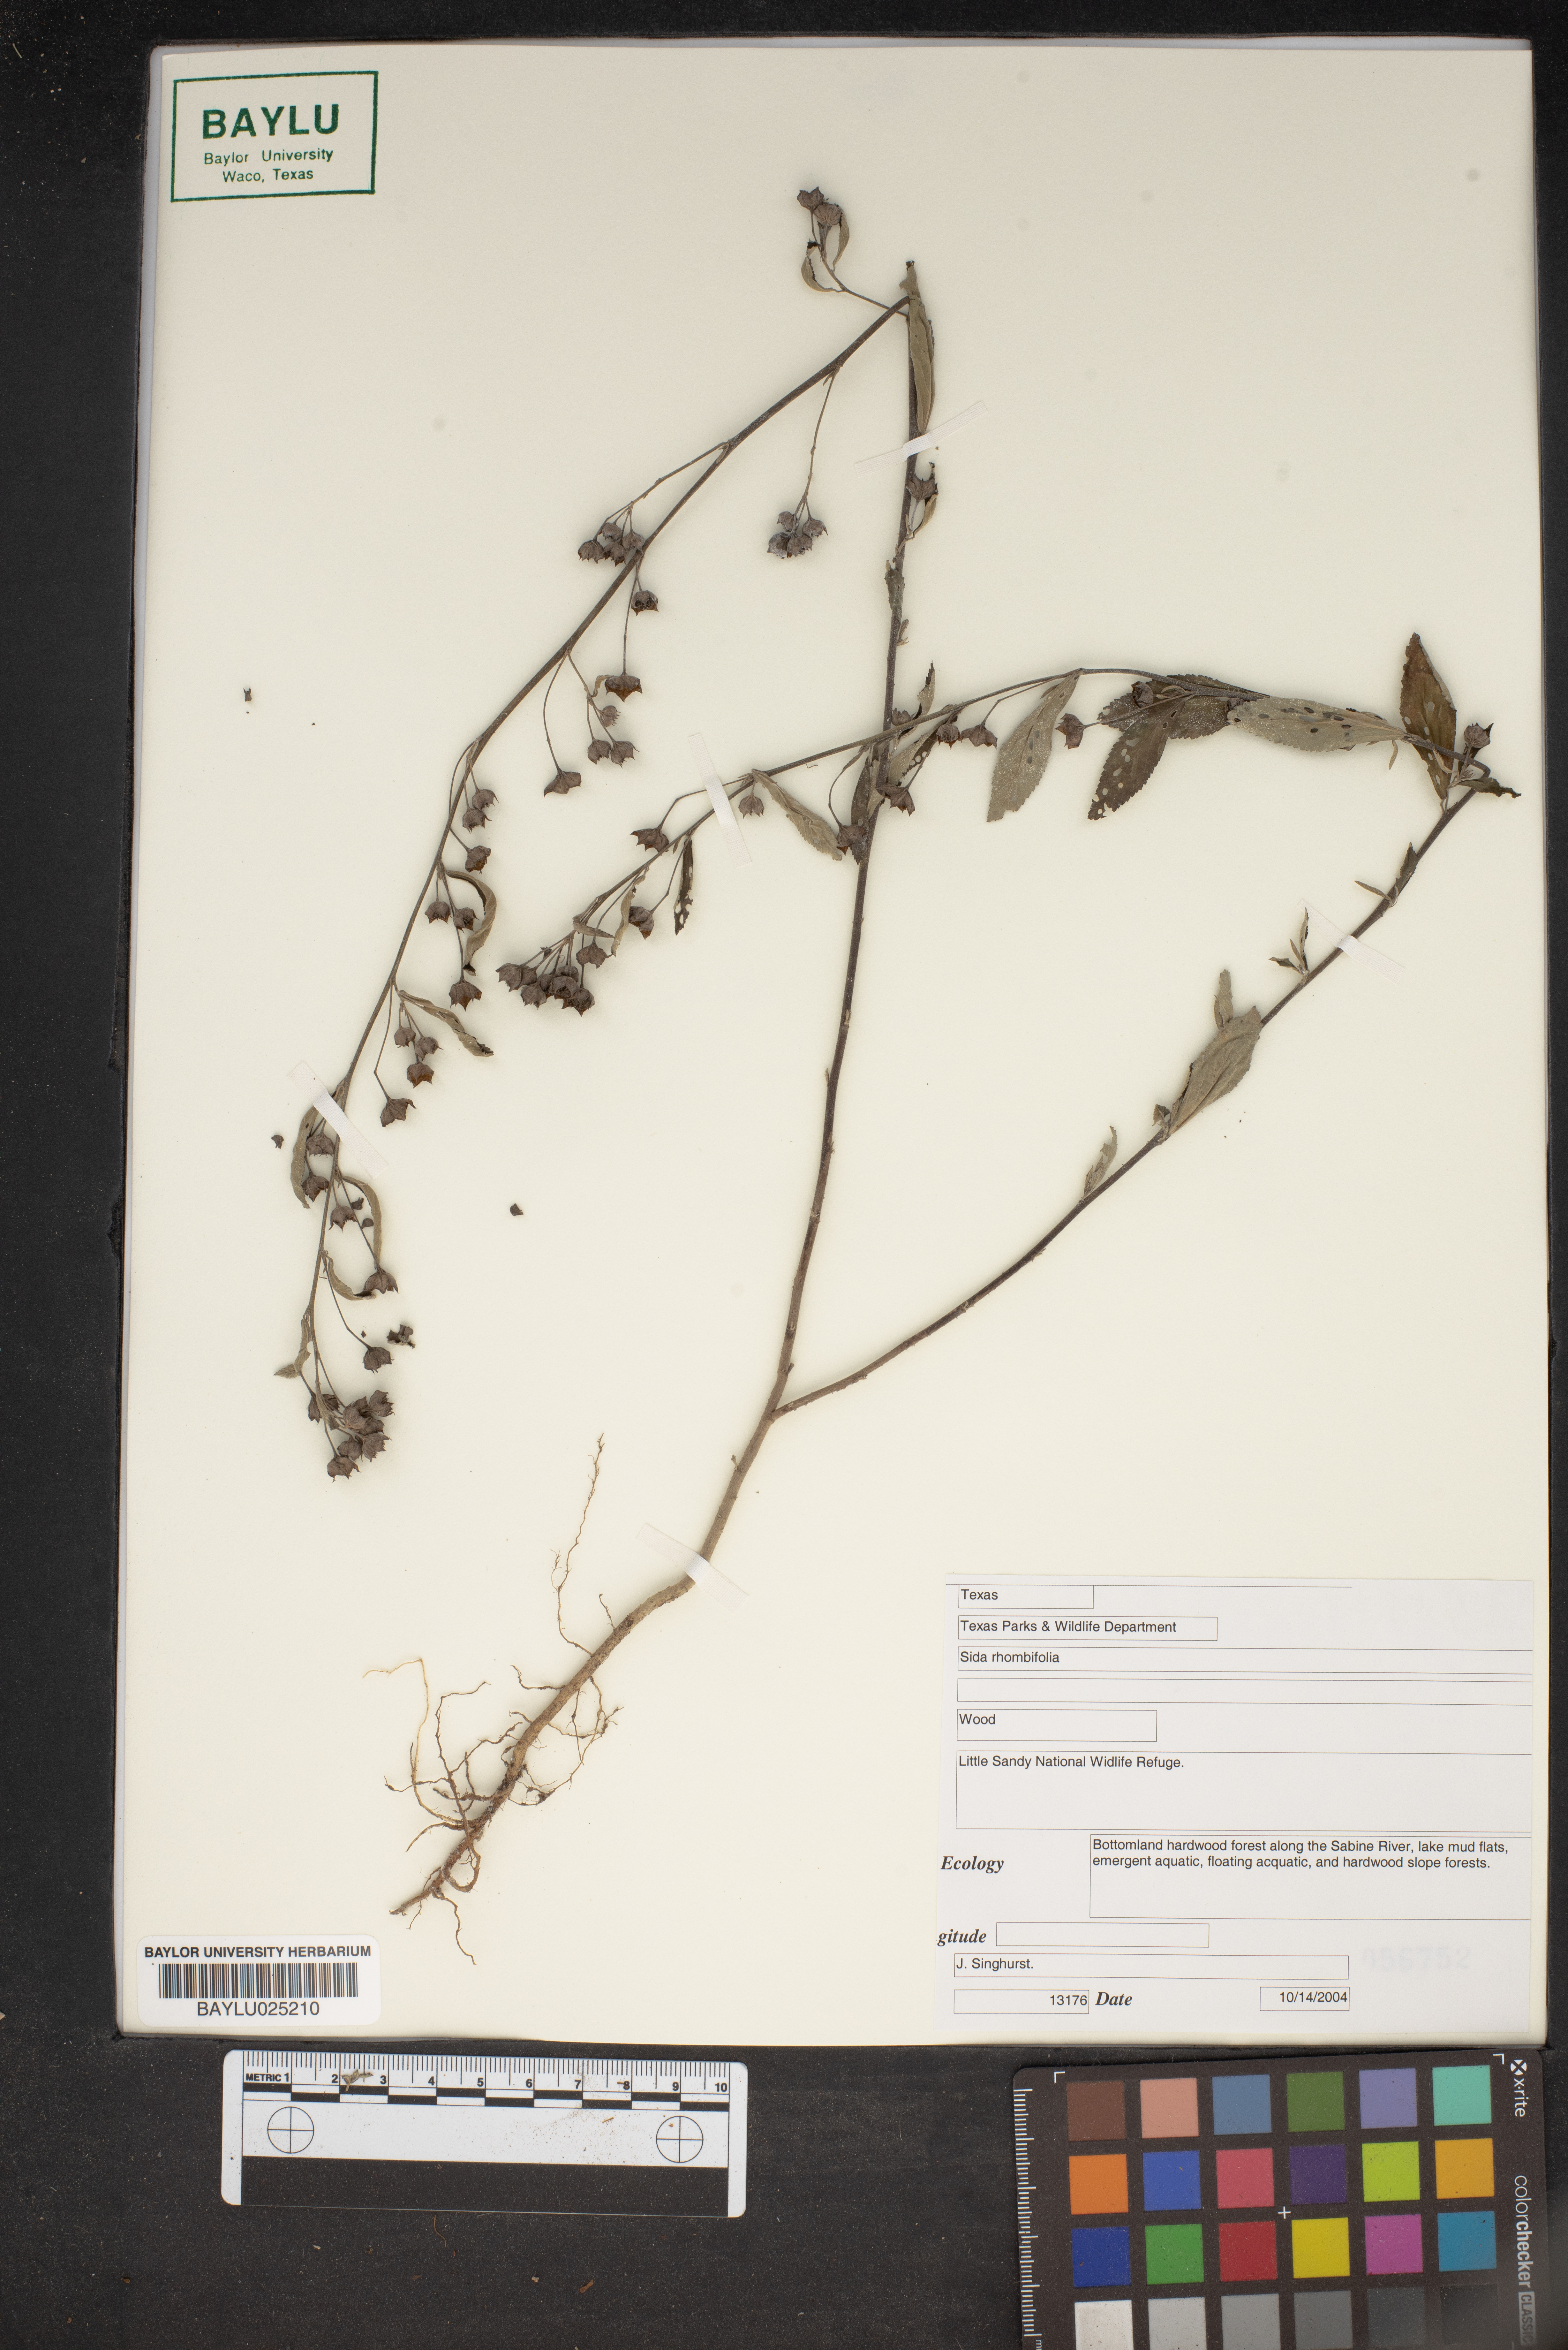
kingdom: Plantae
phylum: Tracheophyta
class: Magnoliopsida
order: Malvales
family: Malvaceae
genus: Sida
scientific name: Sida rhombifolia
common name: Queensland-hemp
